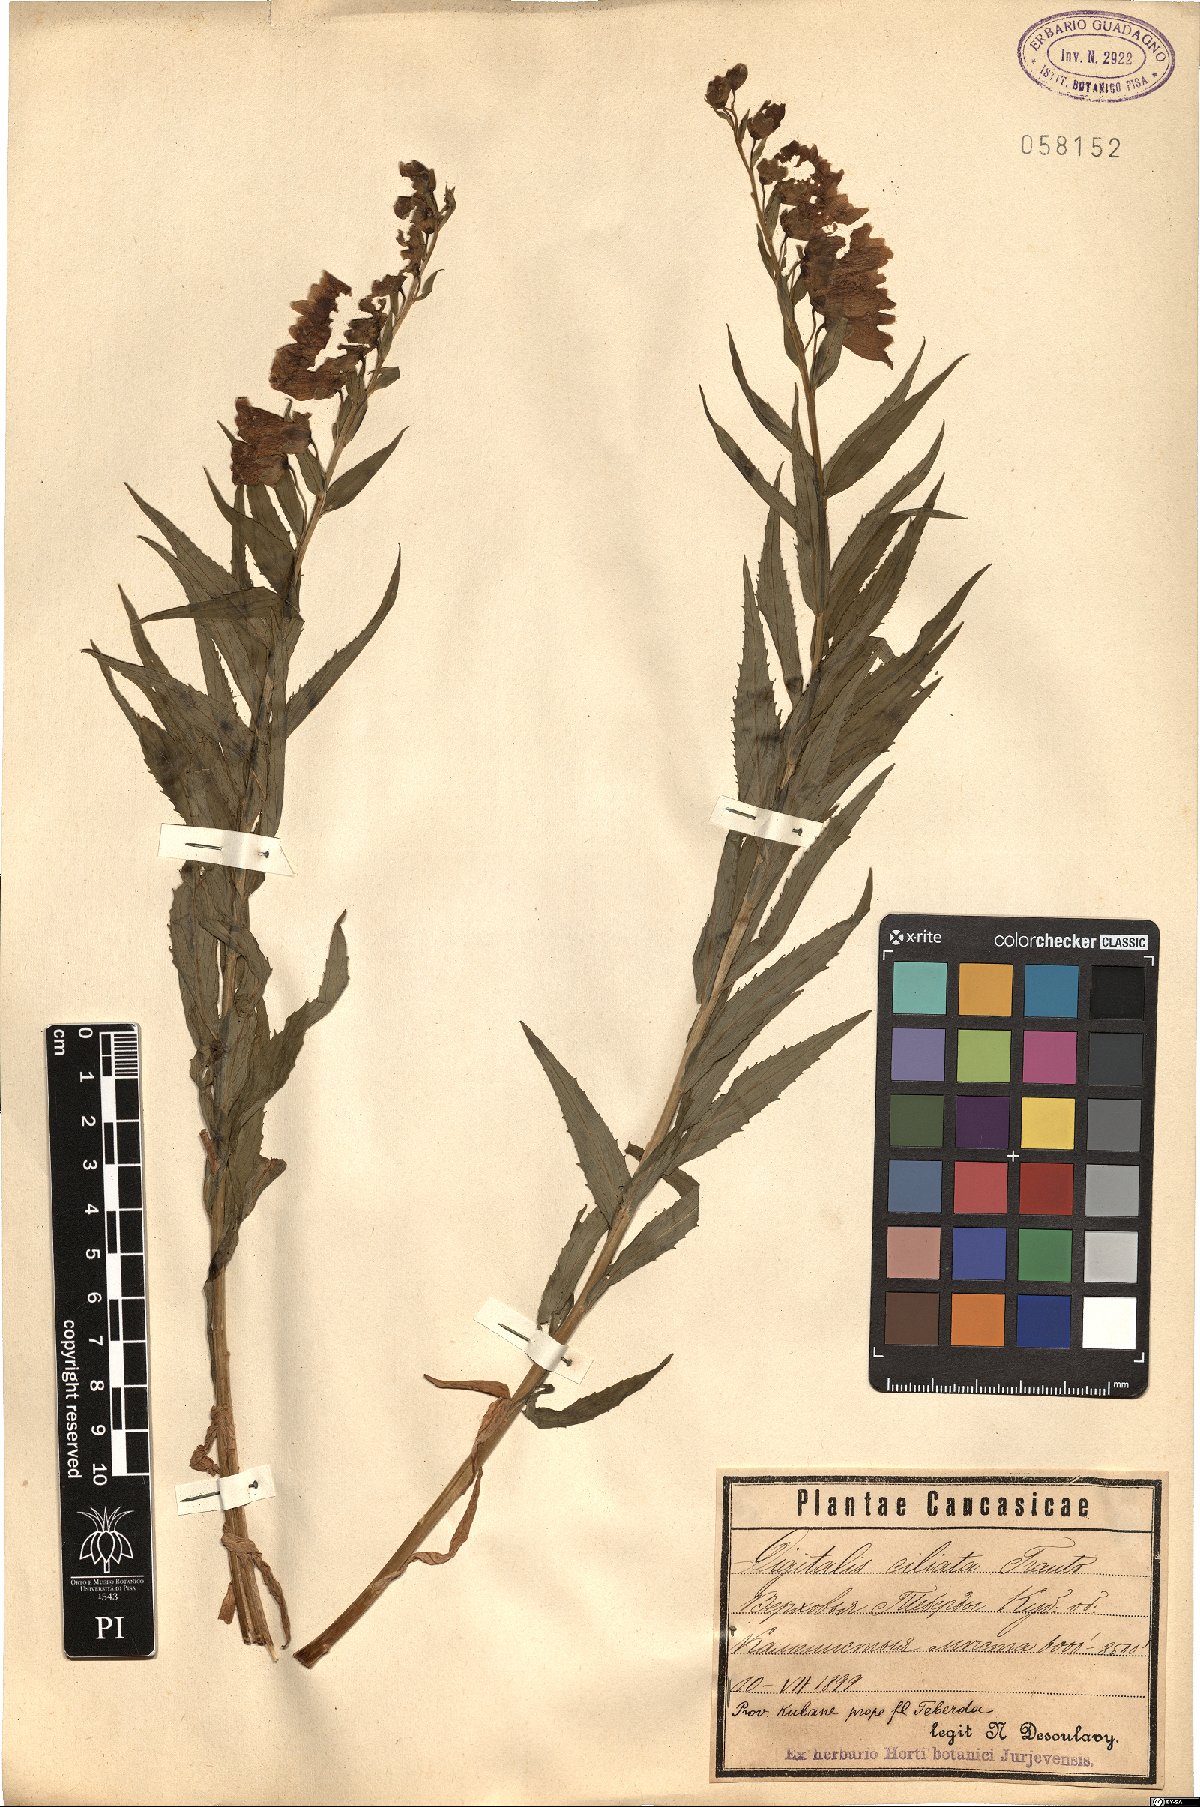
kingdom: Plantae
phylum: Tracheophyta
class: Magnoliopsida
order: Lamiales
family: Plantaginaceae
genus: Digitalis
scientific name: Digitalis ciliata
